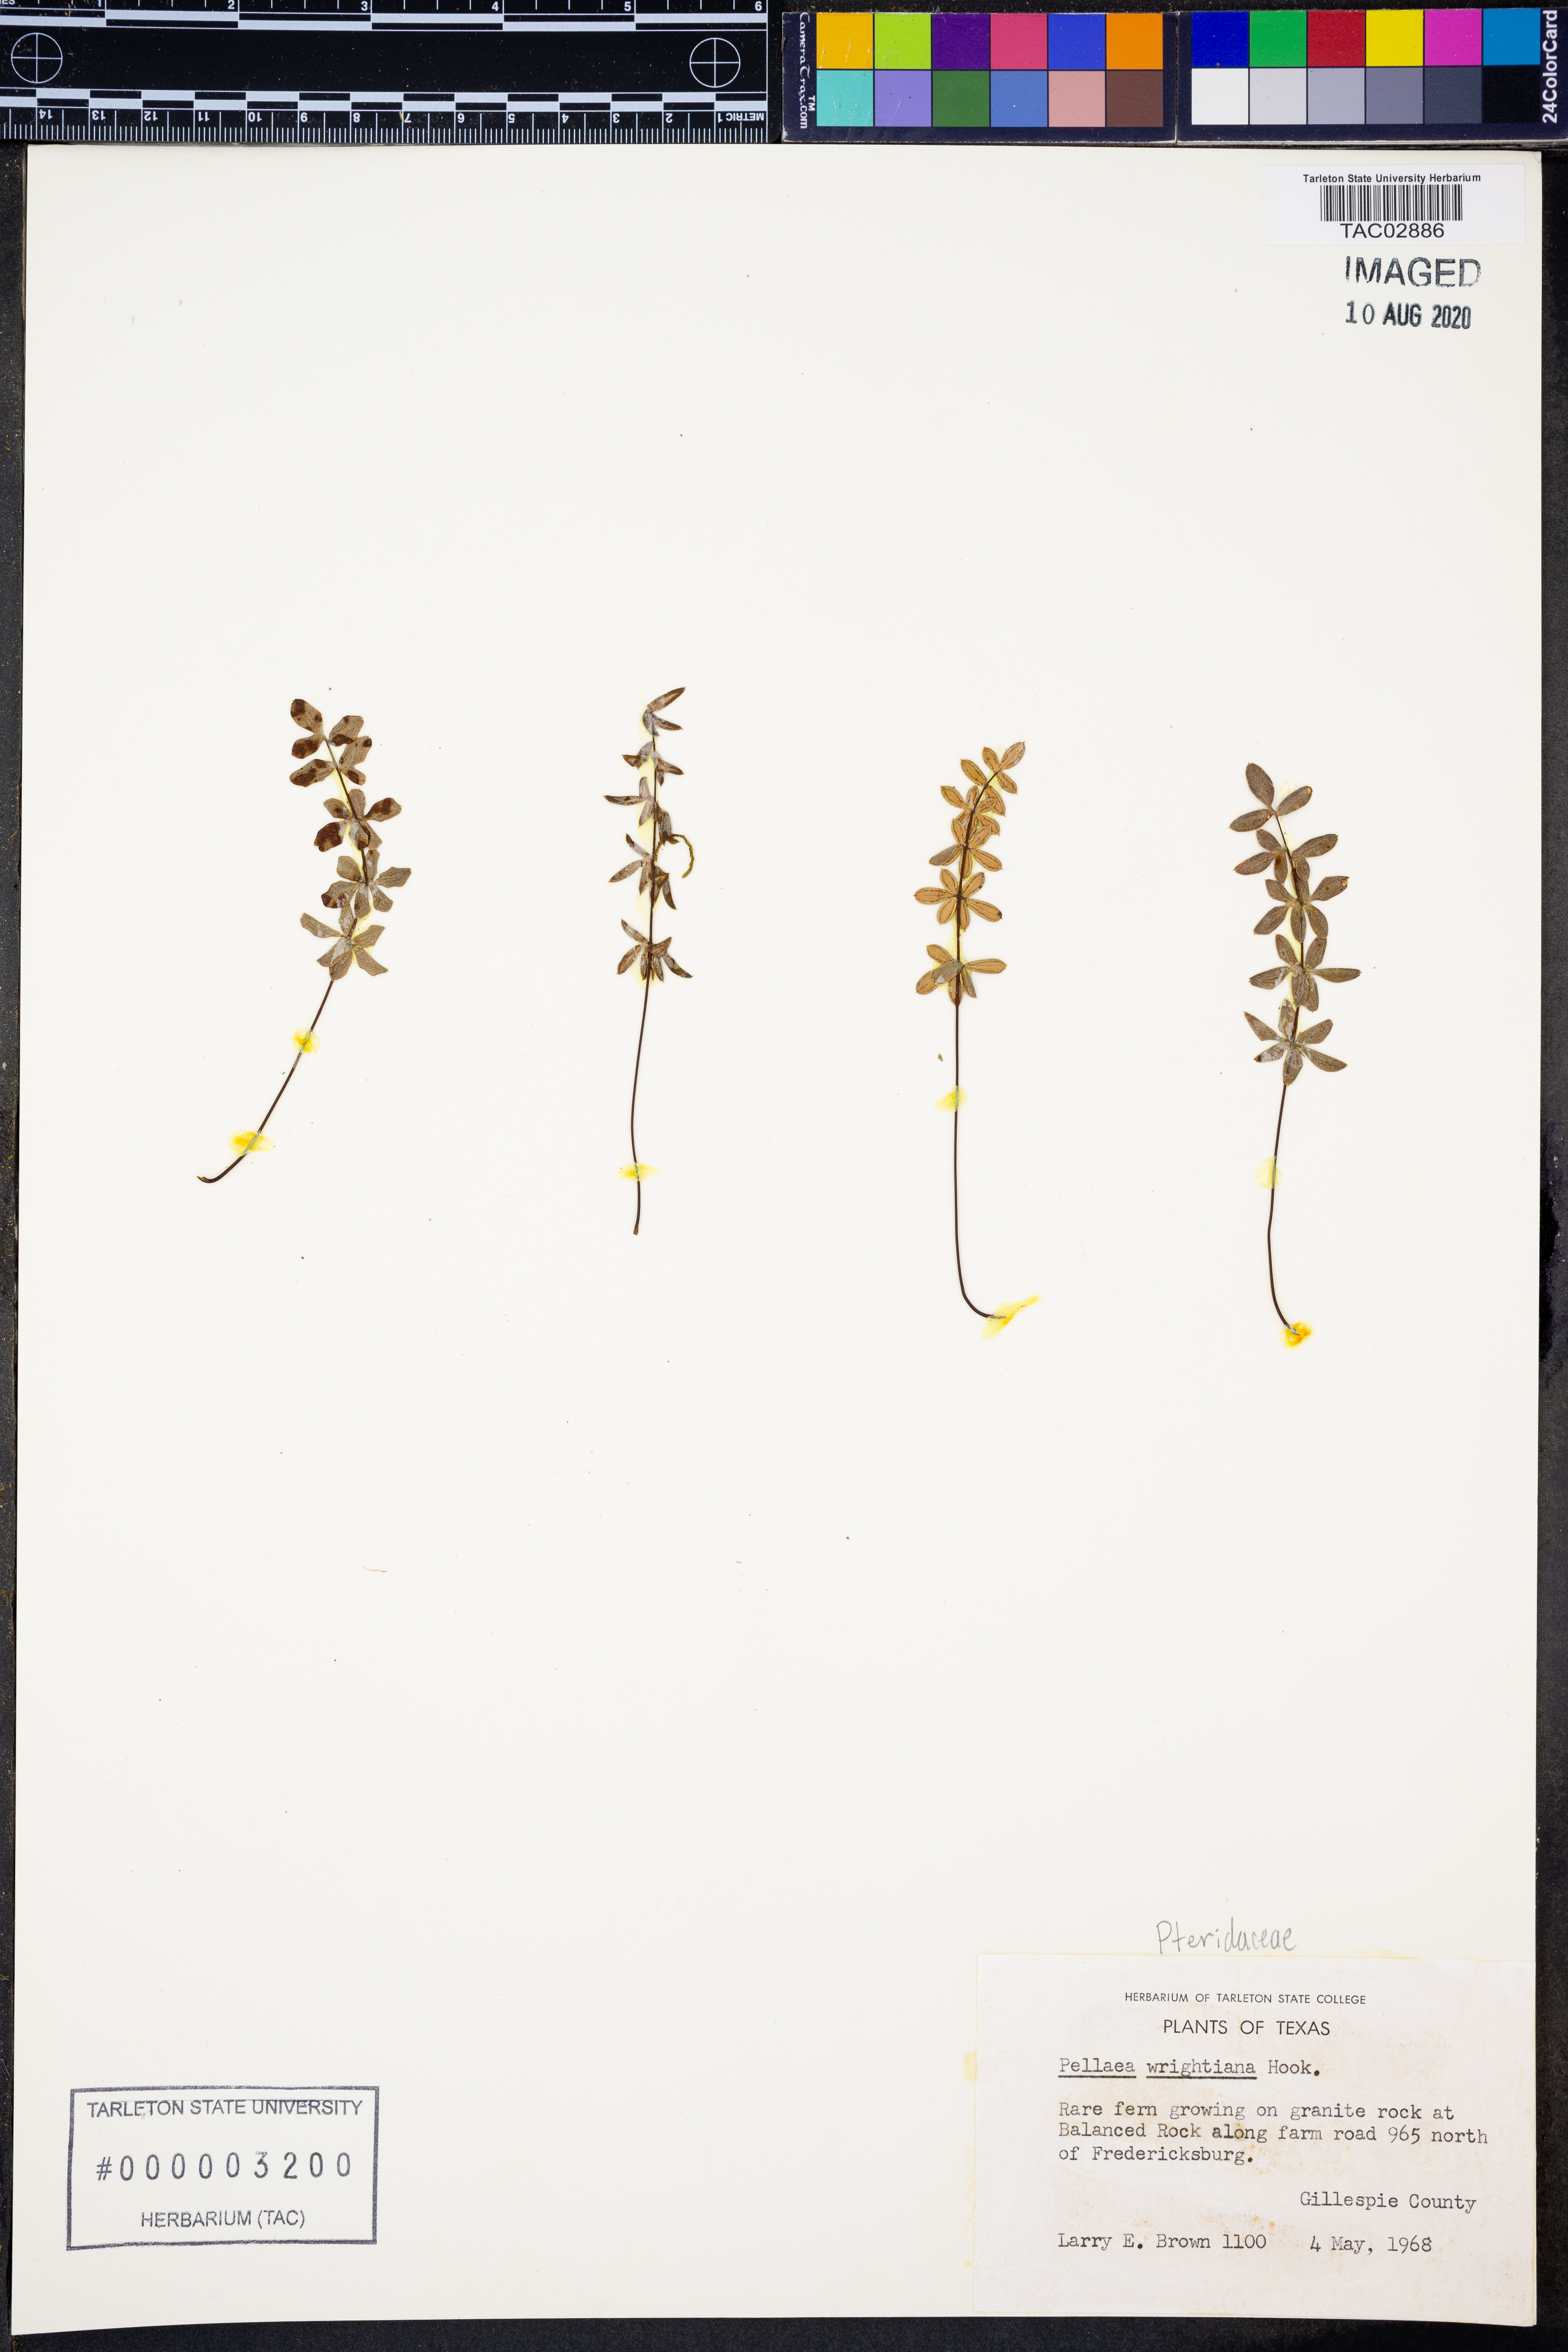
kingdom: Plantae
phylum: Tracheophyta
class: Polypodiopsida
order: Polypodiales
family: Pteridaceae
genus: Pellaea
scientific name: Pellaea wrightiana
